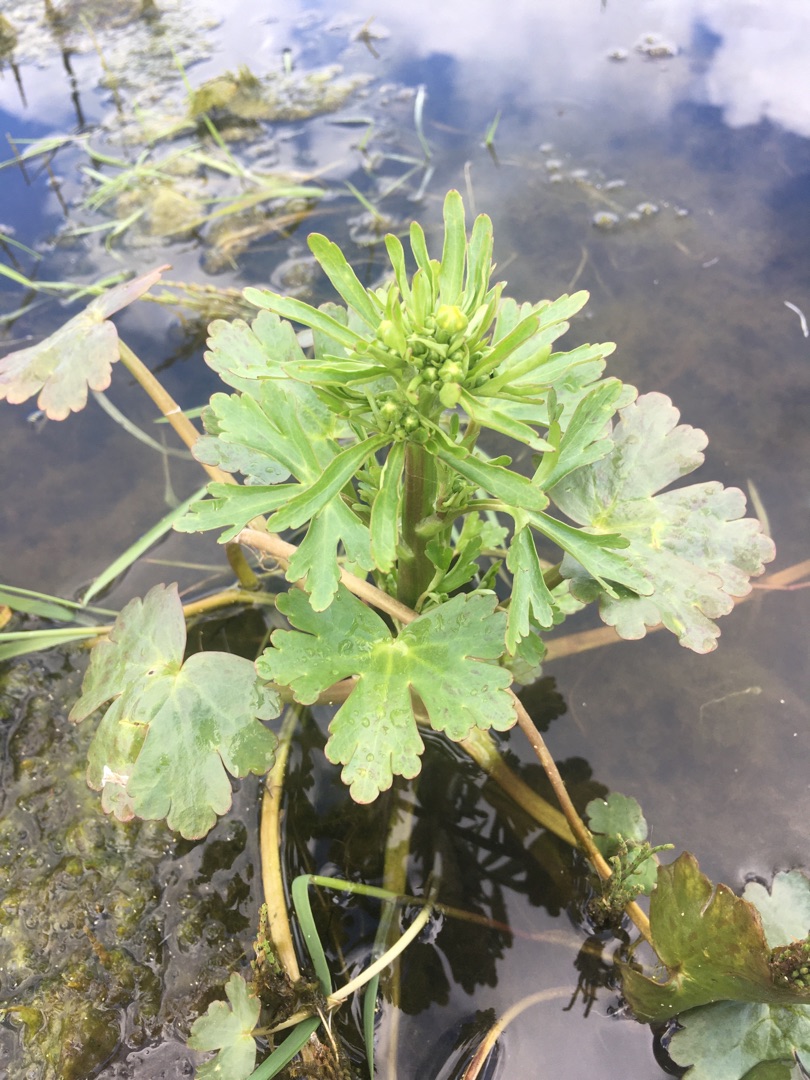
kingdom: Plantae
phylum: Tracheophyta
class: Magnoliopsida
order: Ranunculales
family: Ranunculaceae
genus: Ranunculus
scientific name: Ranunculus sceleratus
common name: Tigger-ranunkel
